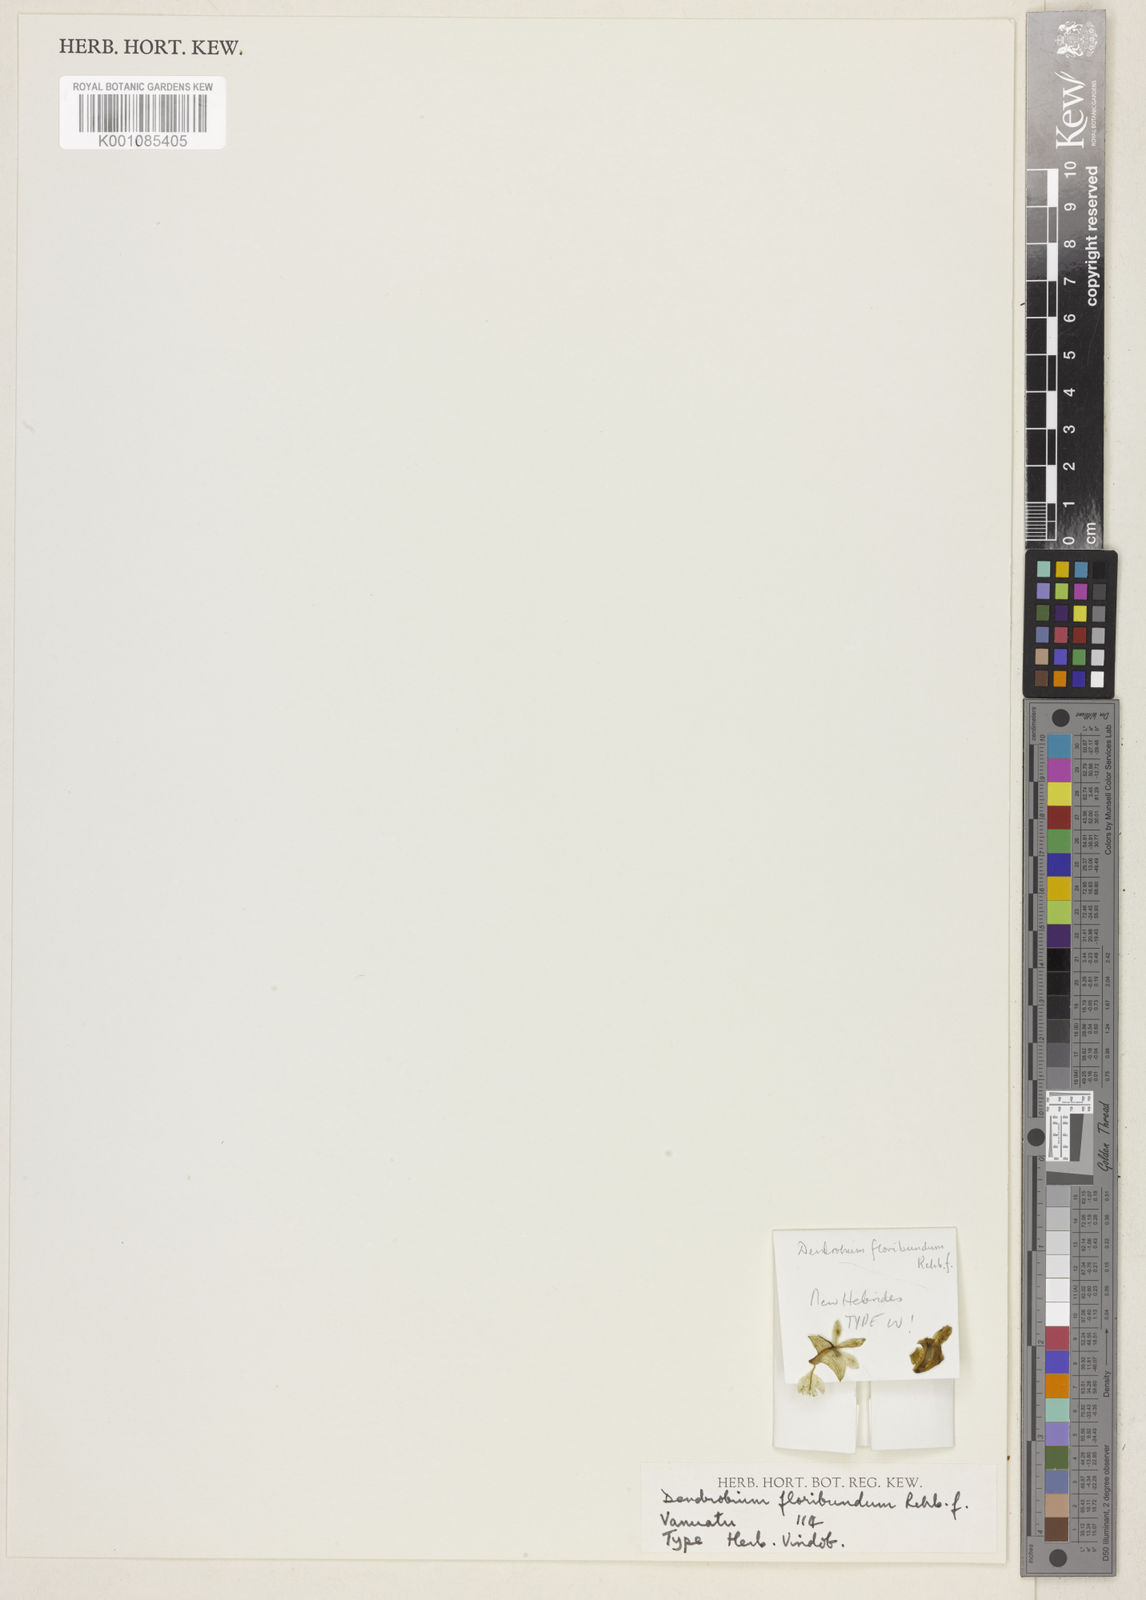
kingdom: Plantae
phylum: Tracheophyta
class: Liliopsida
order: Asparagales
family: Orchidaceae
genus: Dendrobium
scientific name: Dendrobium macropus
